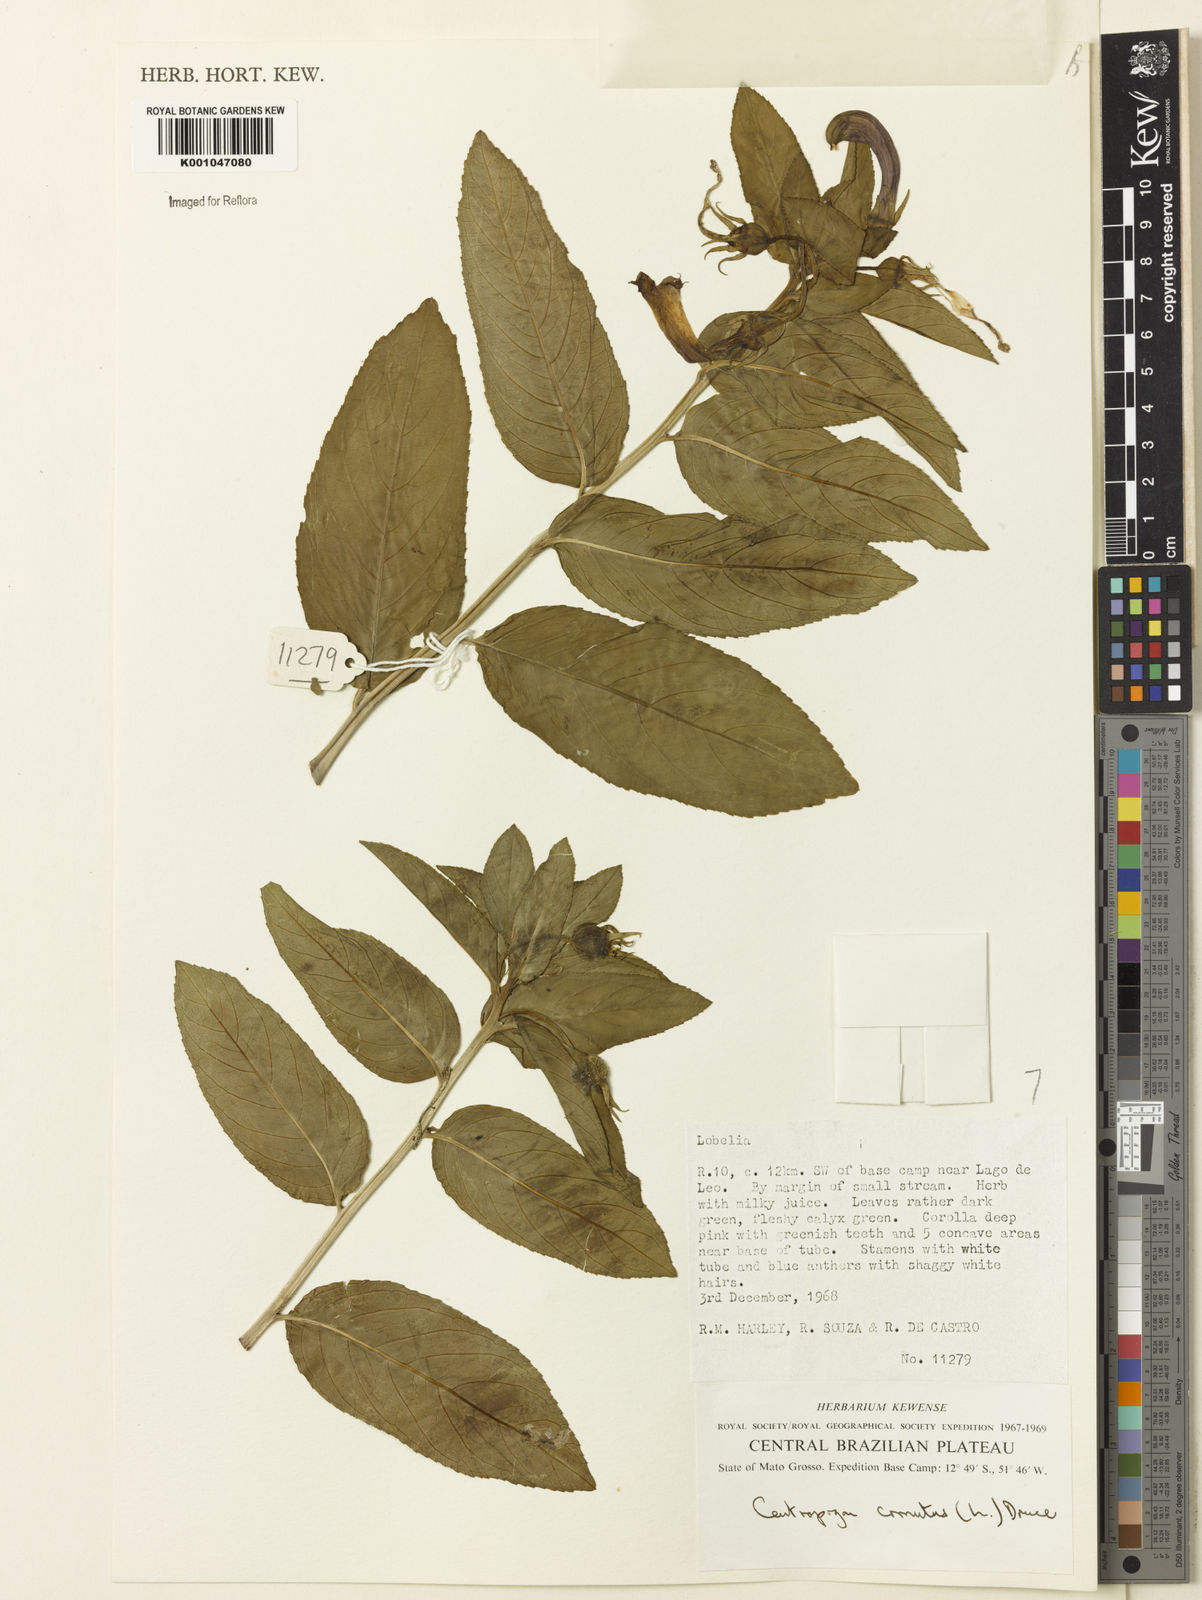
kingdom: Plantae
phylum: Tracheophyta
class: Magnoliopsida
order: Asterales
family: Campanulaceae
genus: Centropogon
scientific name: Centropogon cornutus
